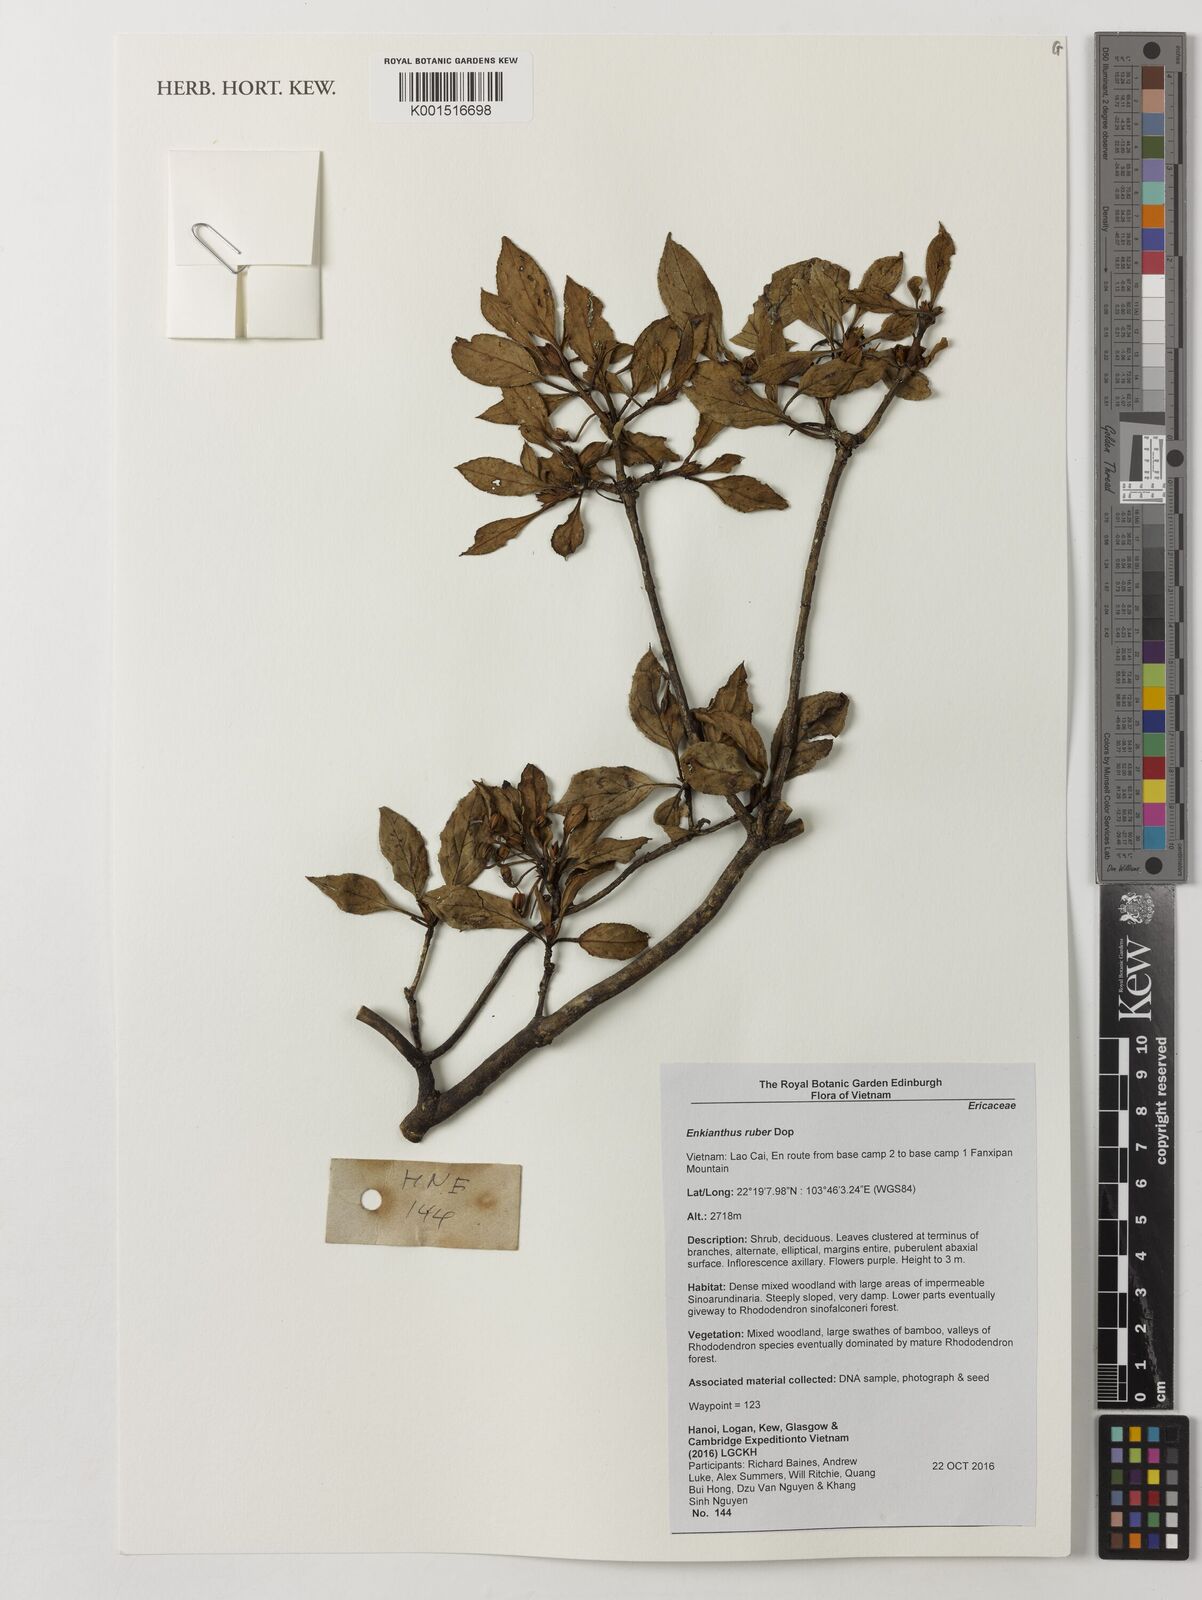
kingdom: Plantae
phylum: Tracheophyta
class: Magnoliopsida
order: Ericales
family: Ericaceae
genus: Enkianthus
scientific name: Enkianthus ruber
